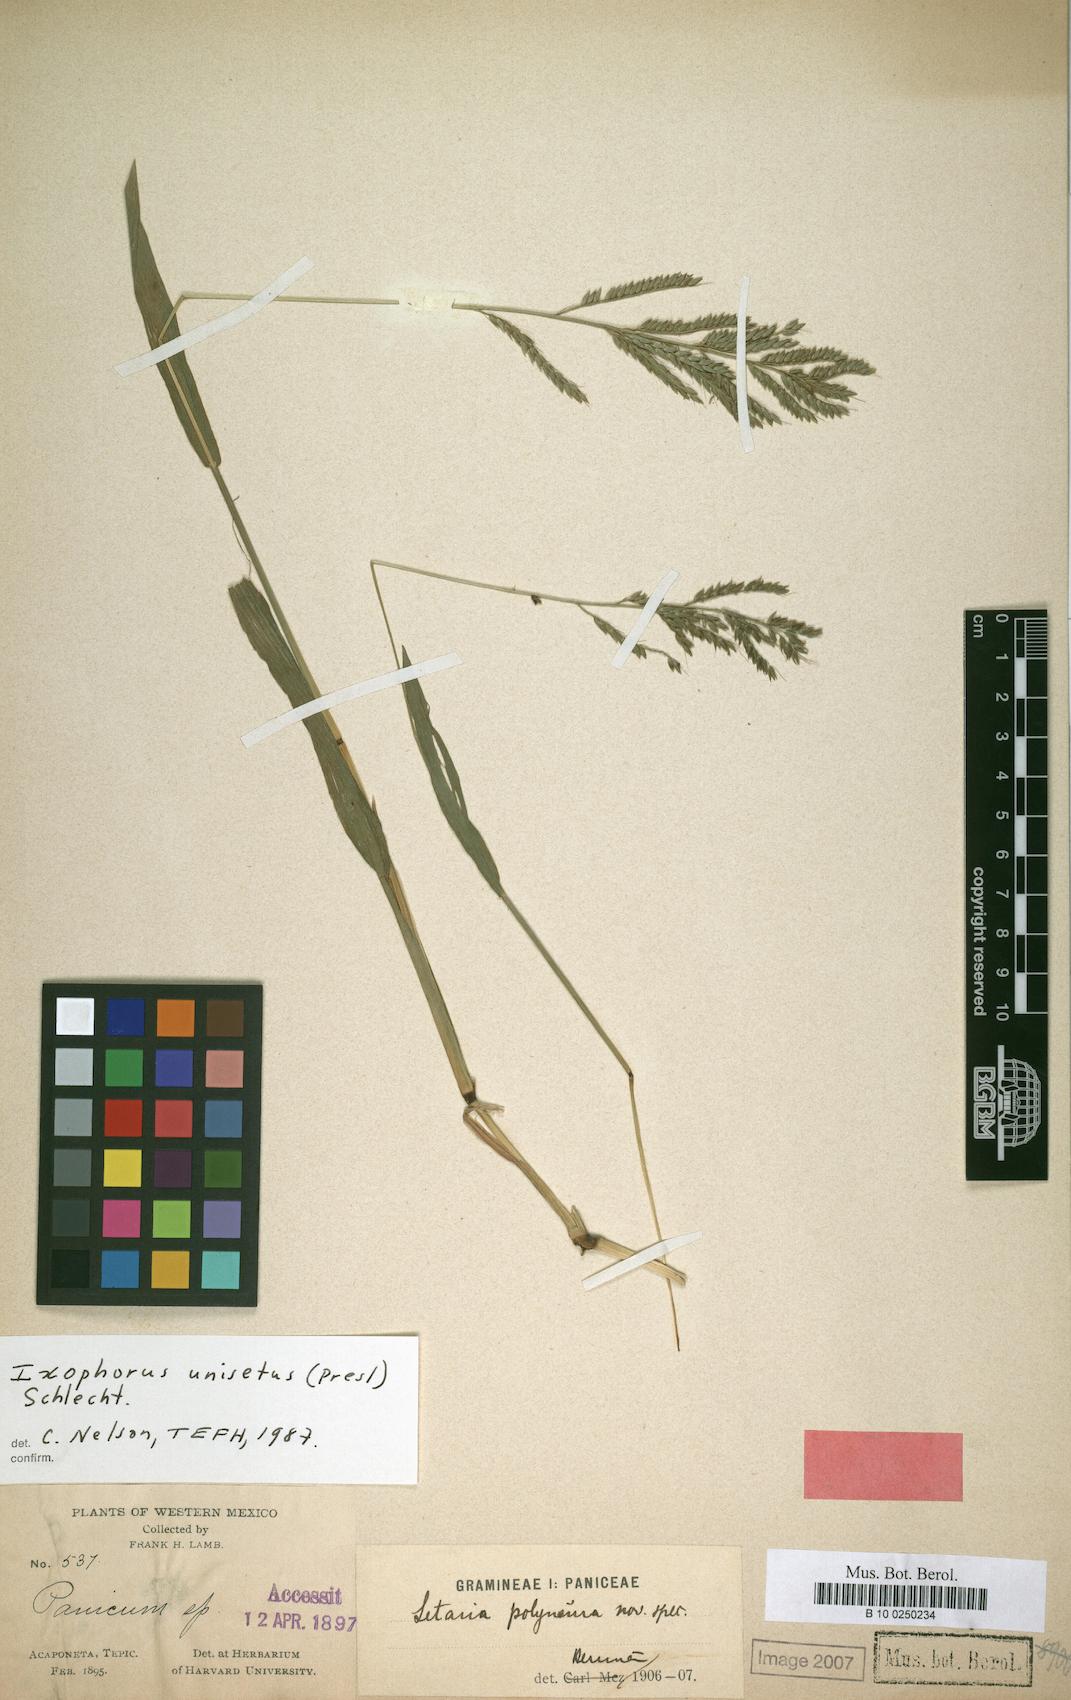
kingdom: Plantae
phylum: Tracheophyta
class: Liliopsida
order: Poales
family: Poaceae
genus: Ixophorus
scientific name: Ixophorus unisetus
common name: Crane grass
